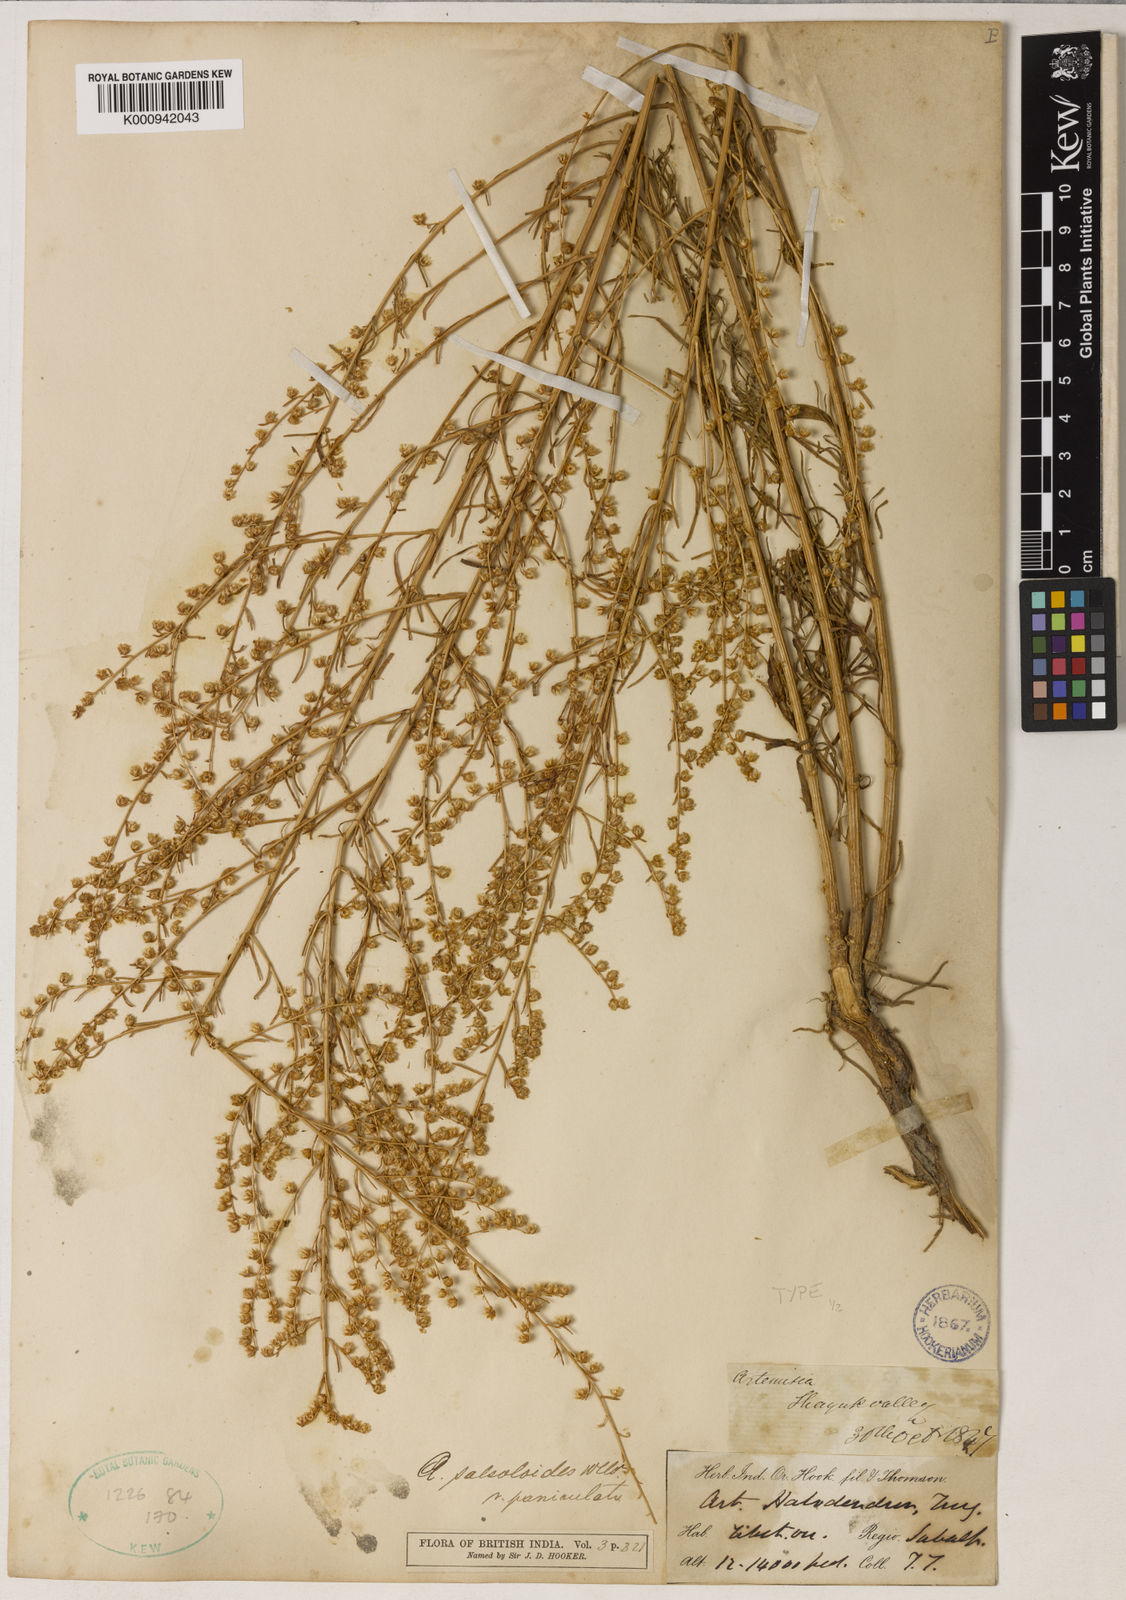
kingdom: Plantae
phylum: Tracheophyta
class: Magnoliopsida
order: Asterales
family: Asteraceae
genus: Artemisia
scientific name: Artemisia xigazeensis
